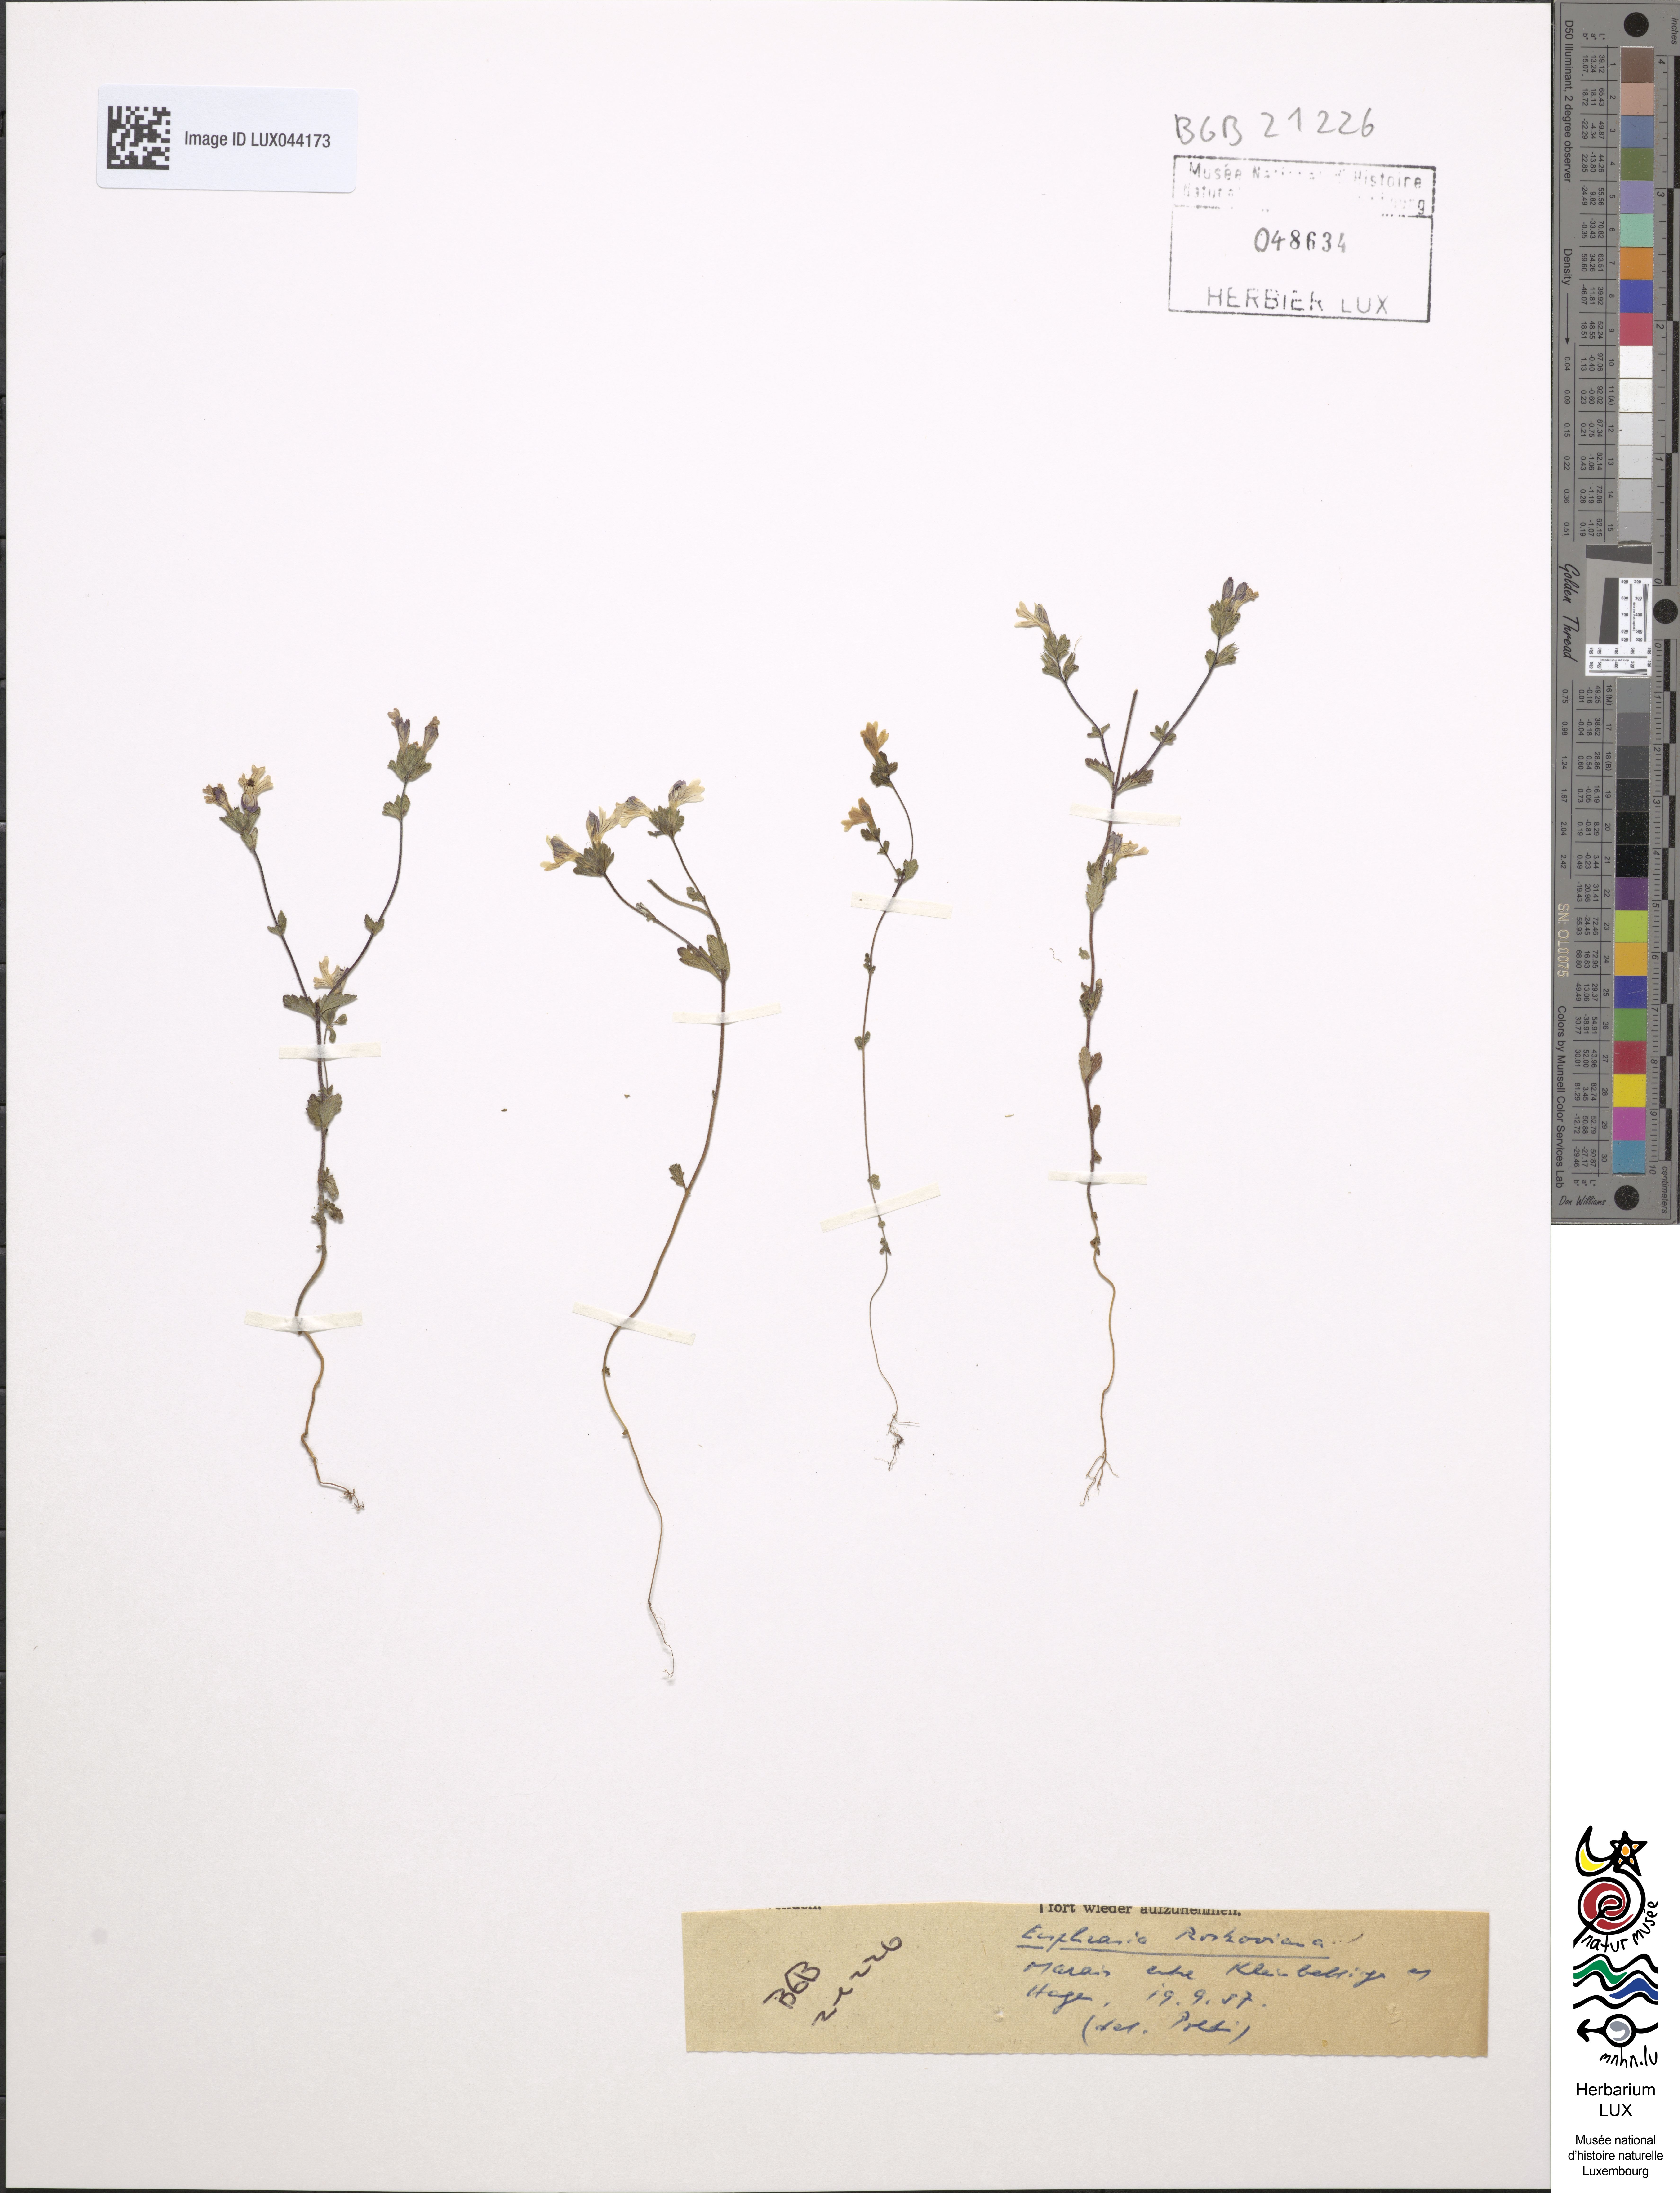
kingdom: Plantae
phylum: Tracheophyta
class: Magnoliopsida
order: Lamiales
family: Orobanchaceae
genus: Euphrasia
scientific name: Euphrasia officinalis
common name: Eyebright
